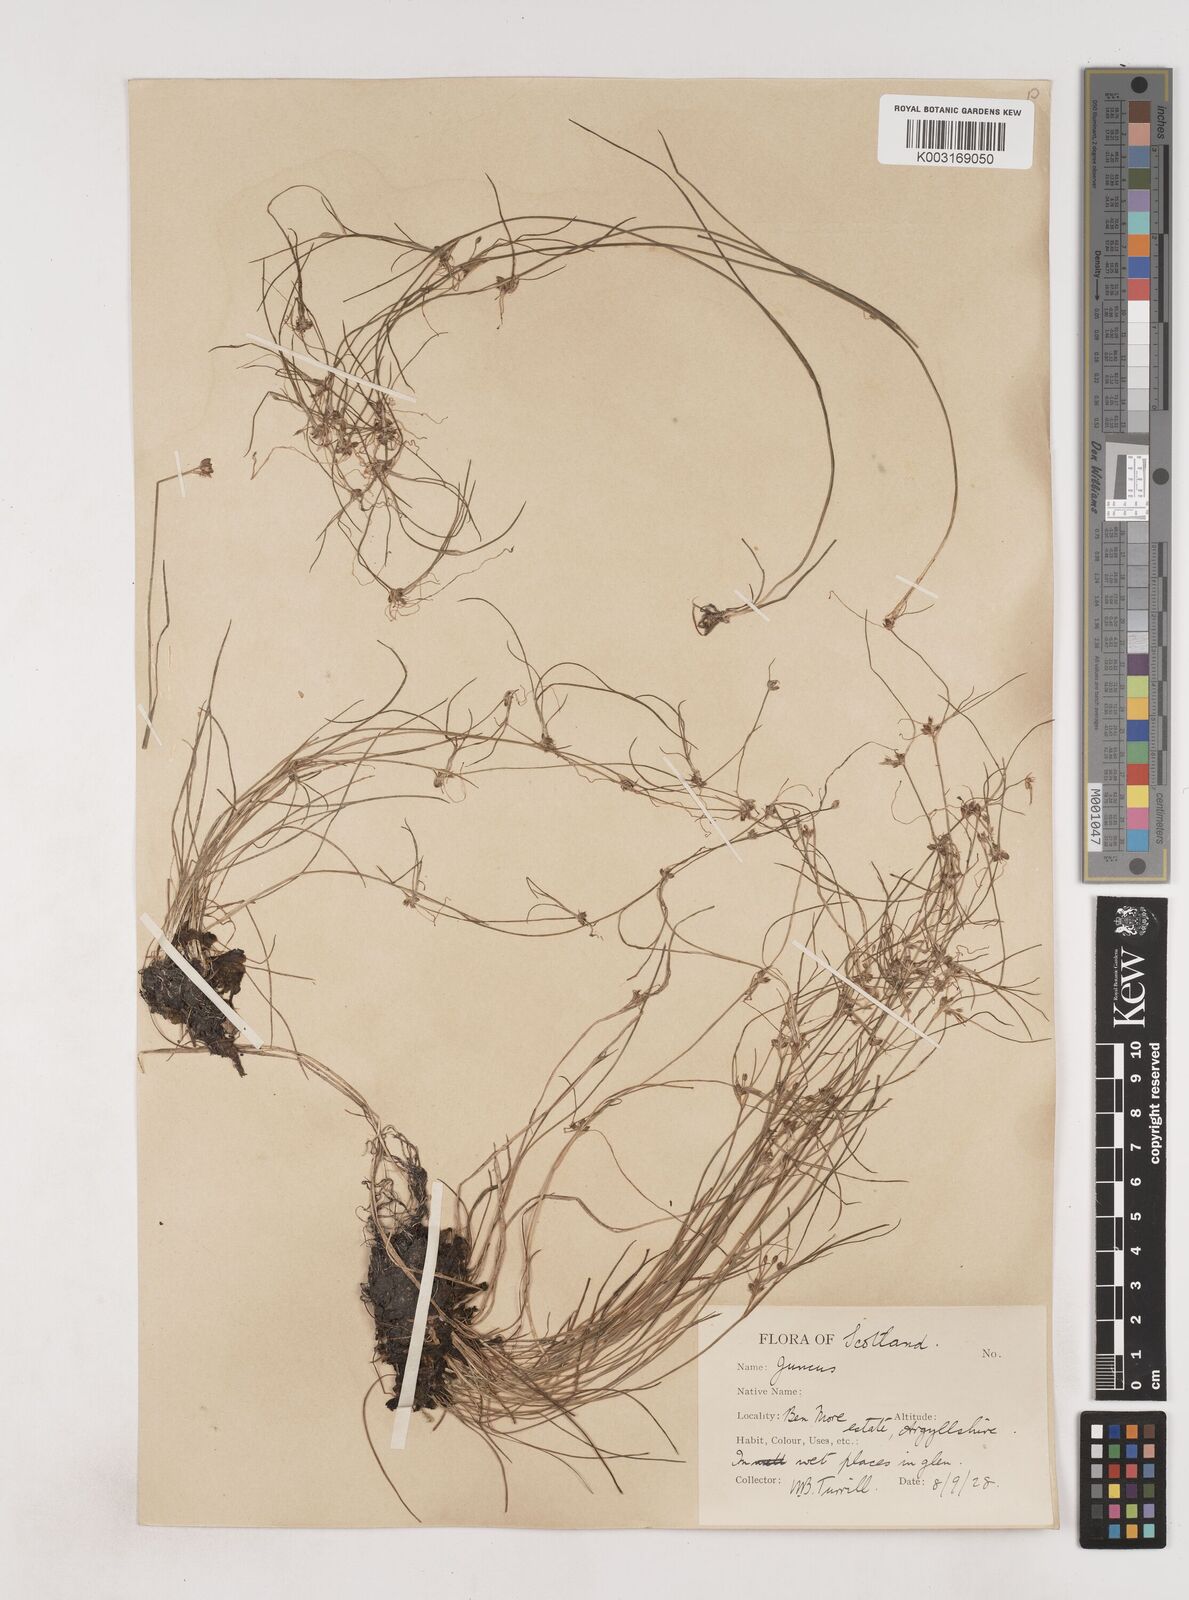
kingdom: Plantae
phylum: Tracheophyta
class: Liliopsida
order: Poales
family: Juncaceae
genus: Juncus
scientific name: Juncus bulbosus
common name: Bulbous rush
